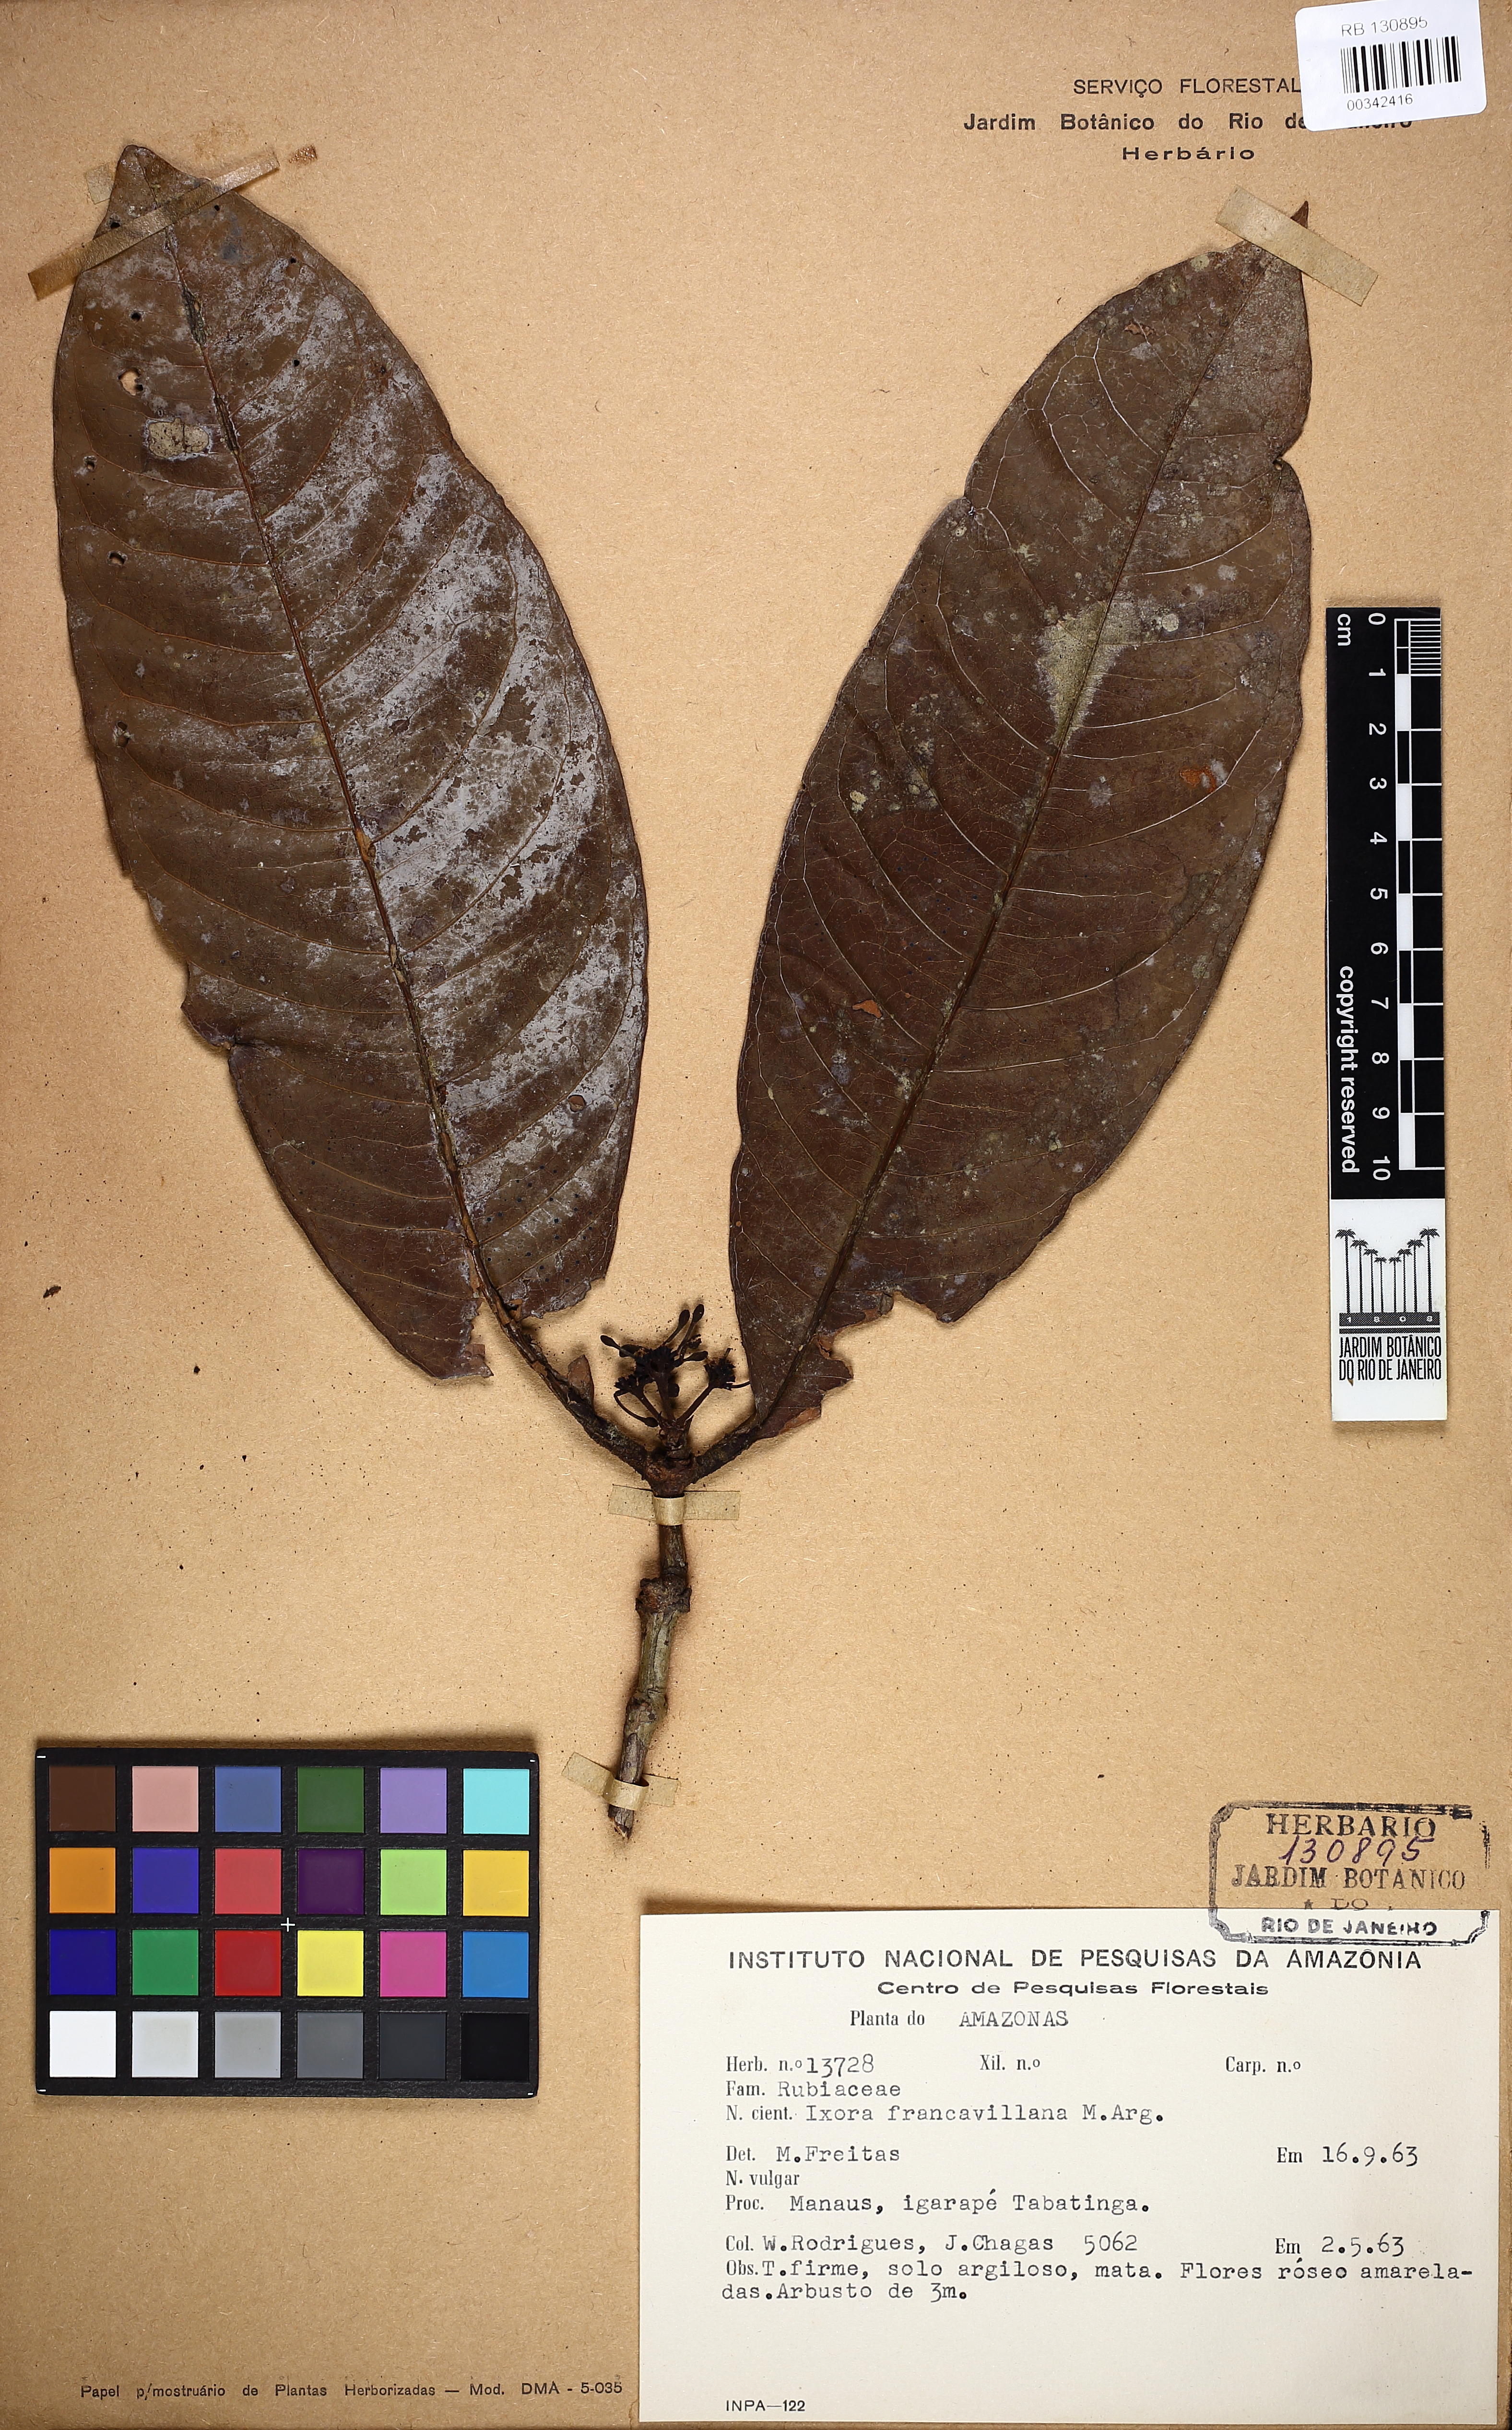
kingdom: Plantae
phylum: Tracheophyta
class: Magnoliopsida
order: Gentianales
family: Rubiaceae
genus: Ixora
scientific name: Ixora francavillana
